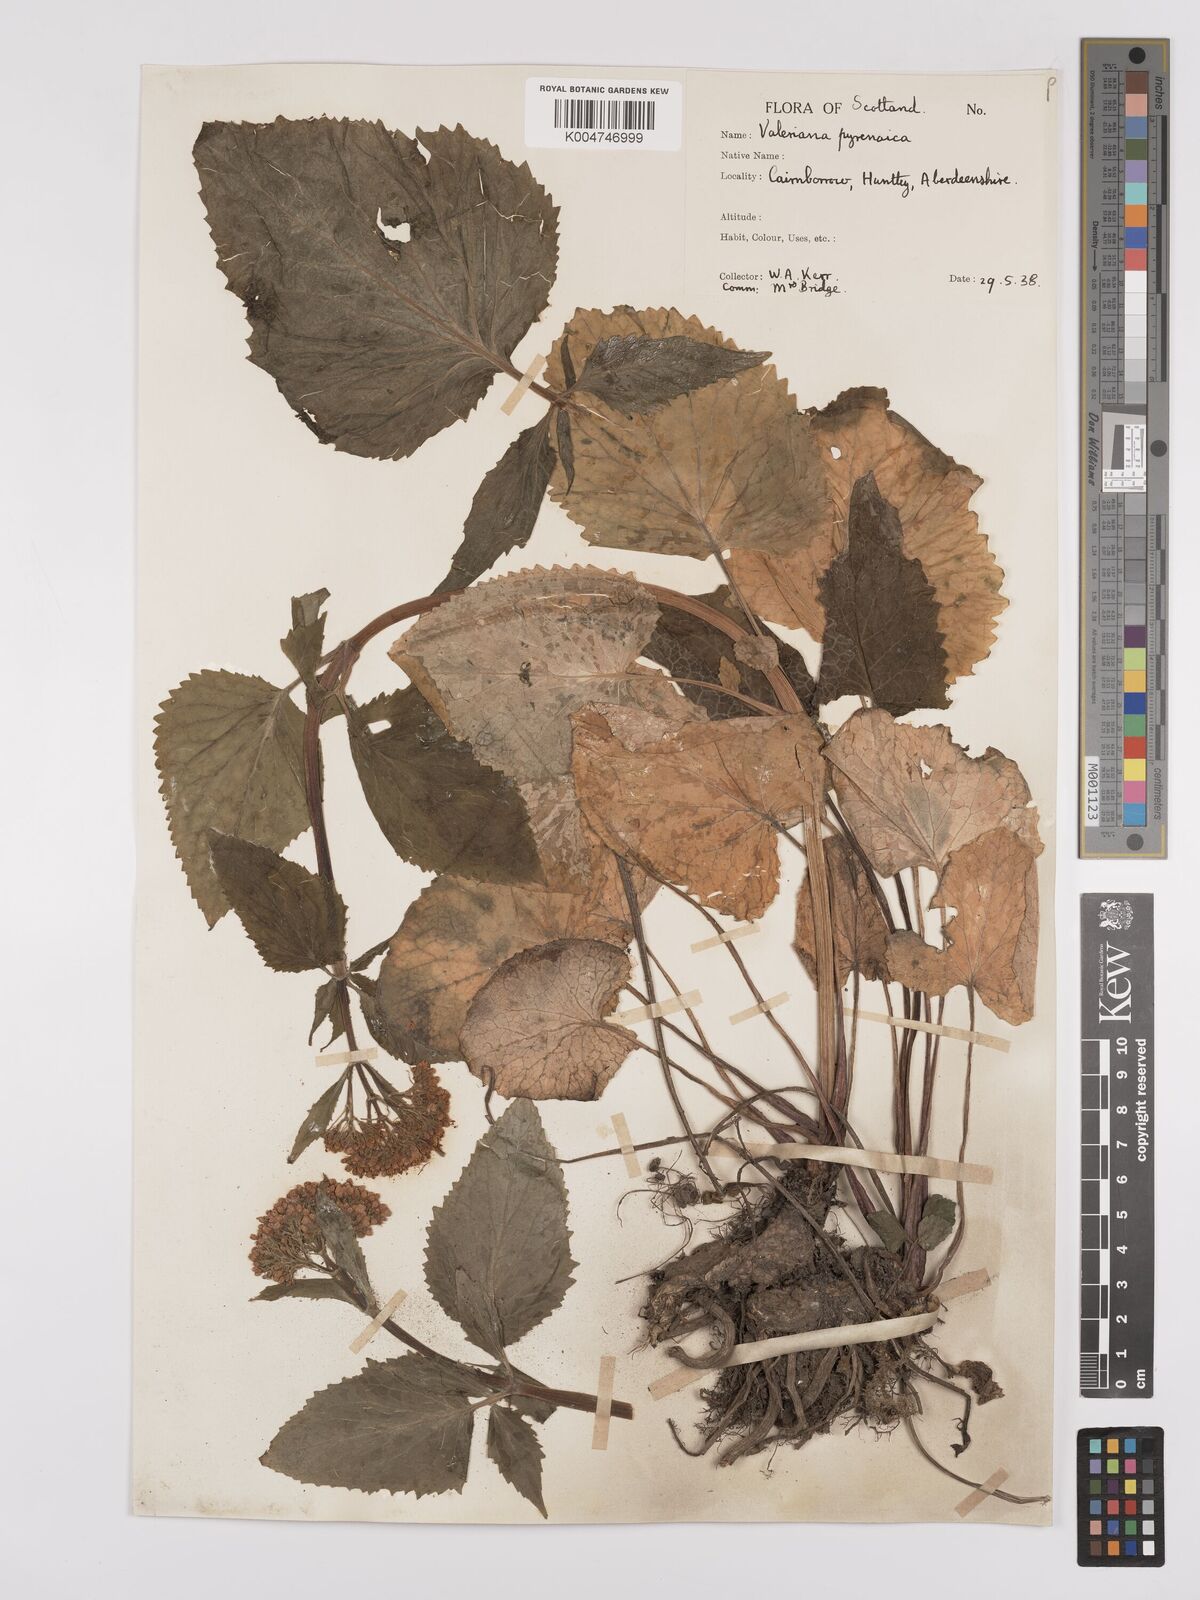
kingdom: Plantae
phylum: Tracheophyta
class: Magnoliopsida
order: Dipsacales
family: Caprifoliaceae
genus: Valeriana
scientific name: Valeriana pyrenaica
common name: Pyrenean valerian
